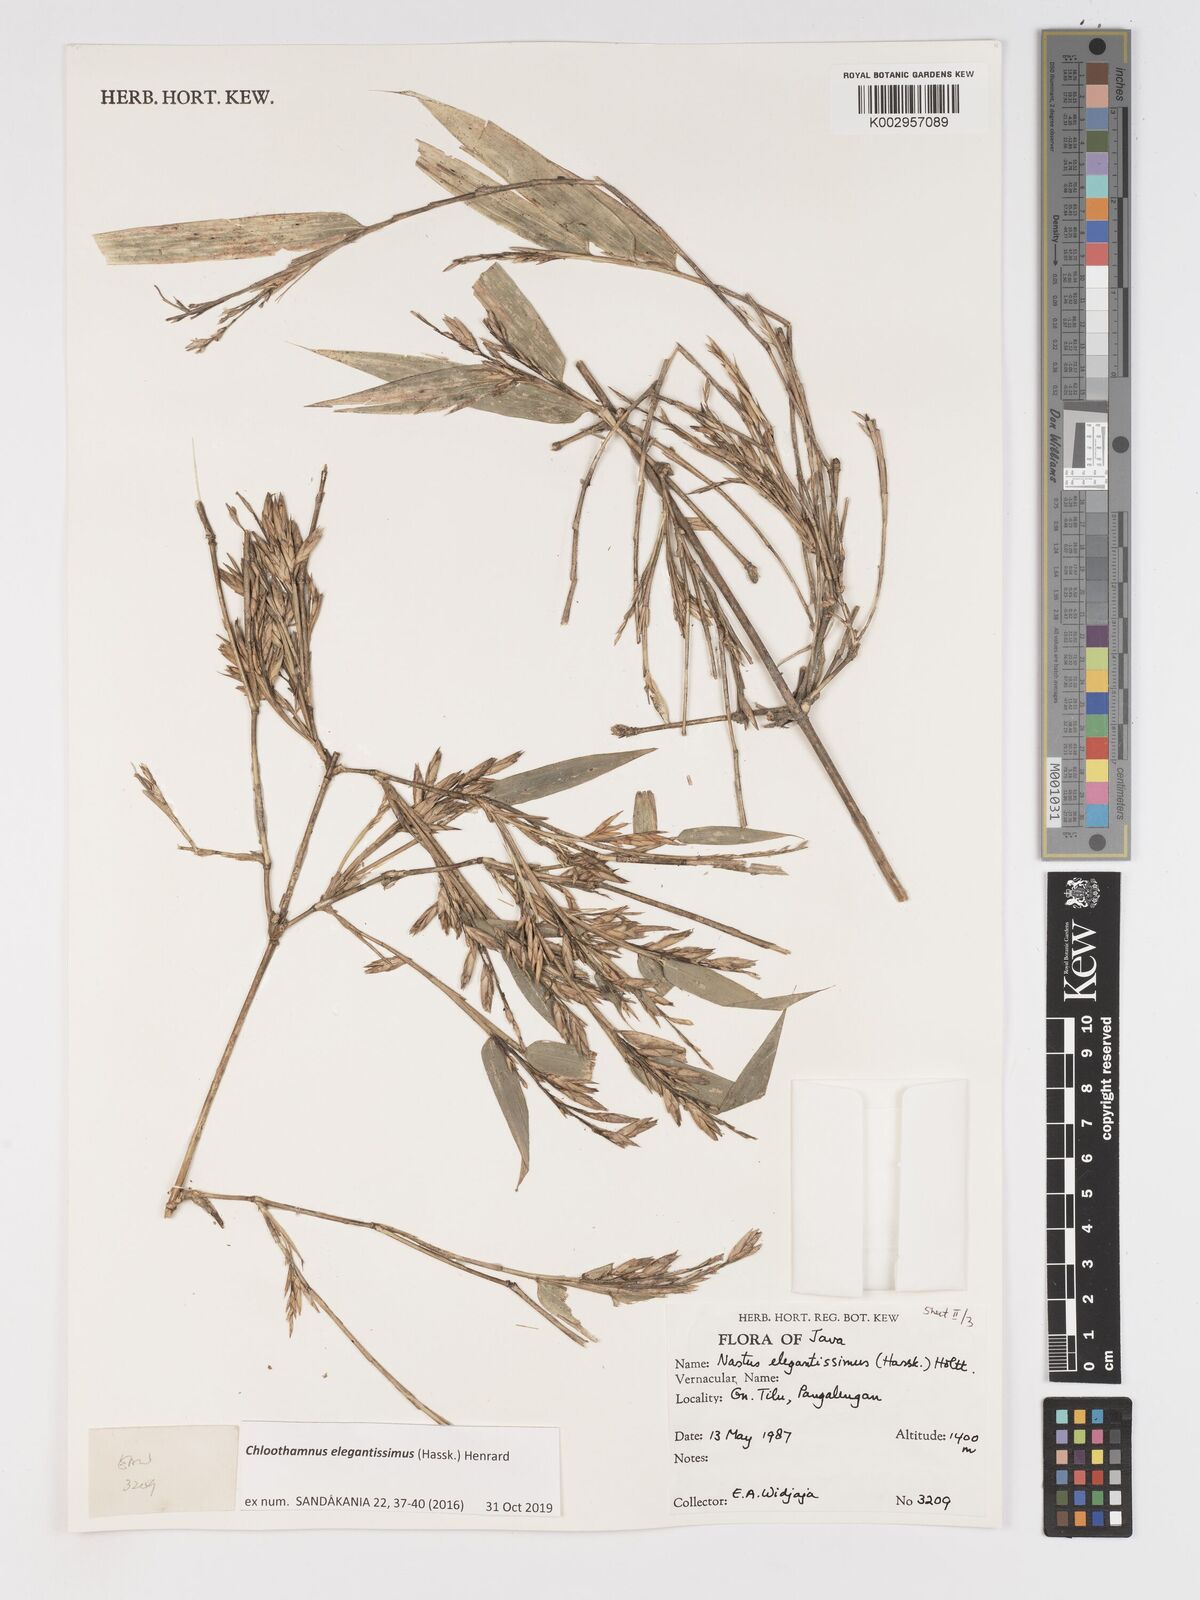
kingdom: Plantae
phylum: Tracheophyta
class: Liliopsida
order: Poales
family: Poaceae
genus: Chloothamnus
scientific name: Chloothamnus elegantissimus
